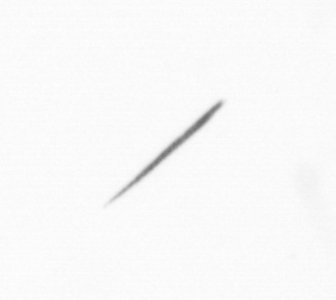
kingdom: Chromista
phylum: Ochrophyta
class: Bacillariophyceae
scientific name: Bacillariophyceae
